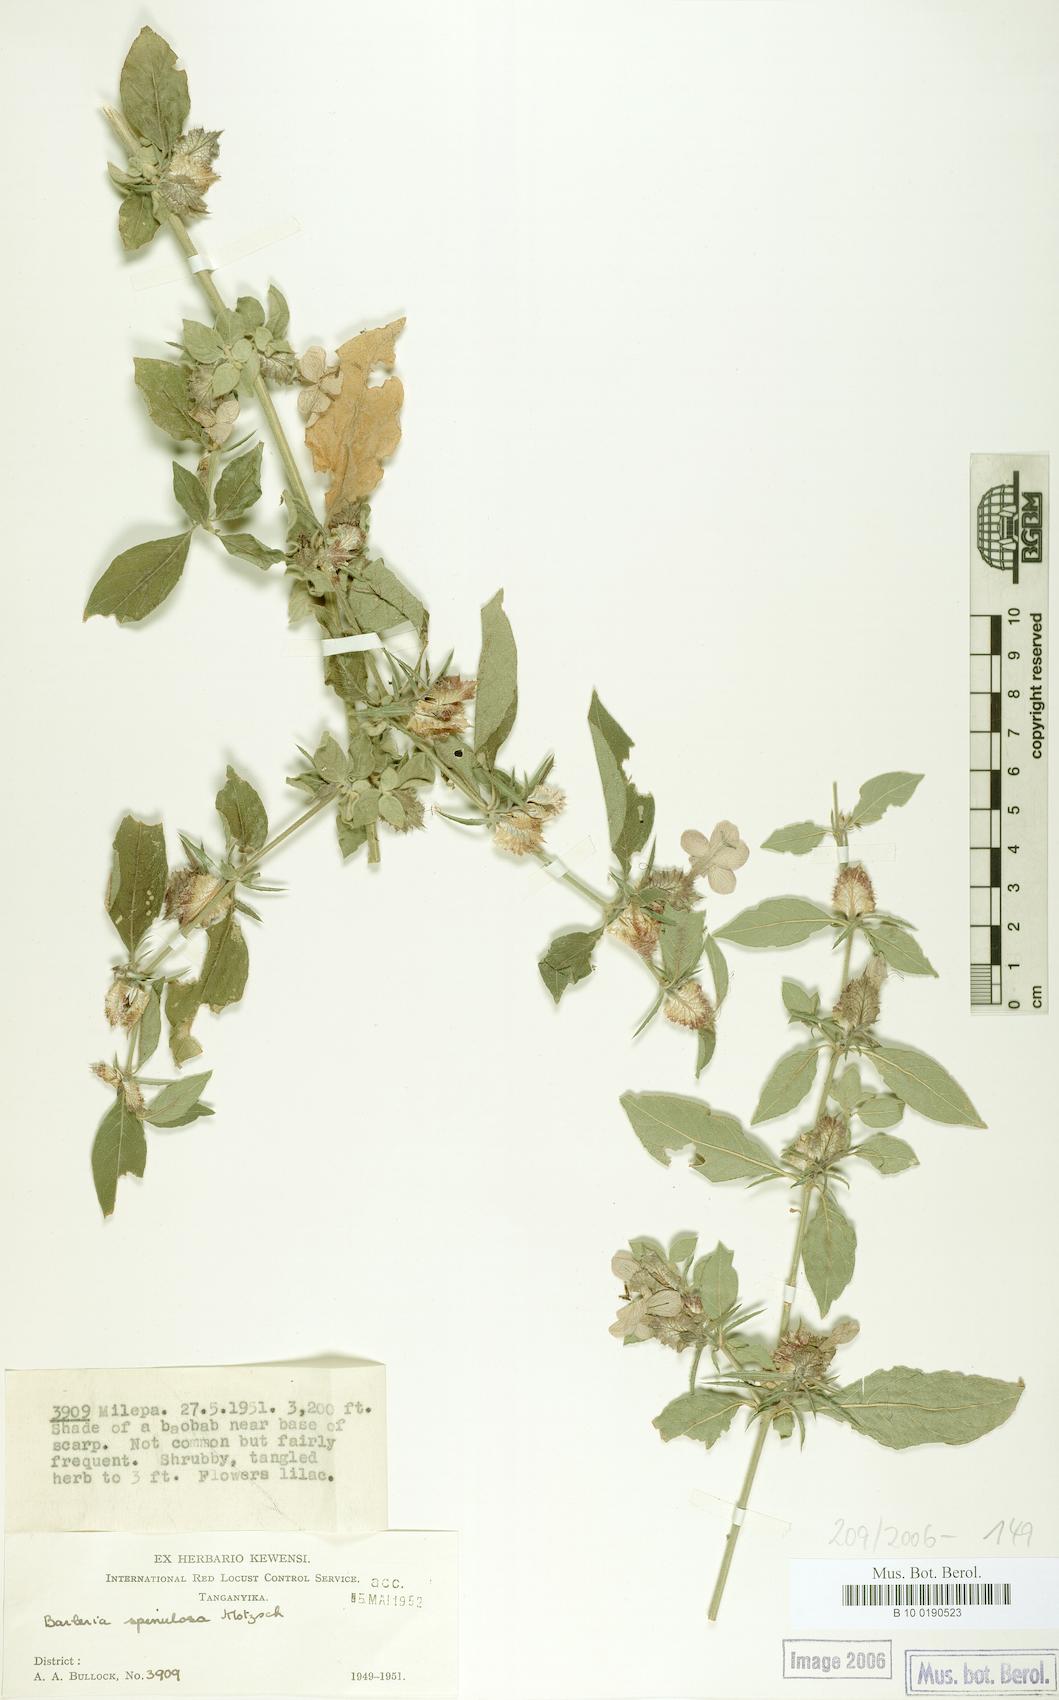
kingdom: Plantae
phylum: Tracheophyta
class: Magnoliopsida
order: Lamiales
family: Acanthaceae
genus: Barleria
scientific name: Barleria spinulosa
